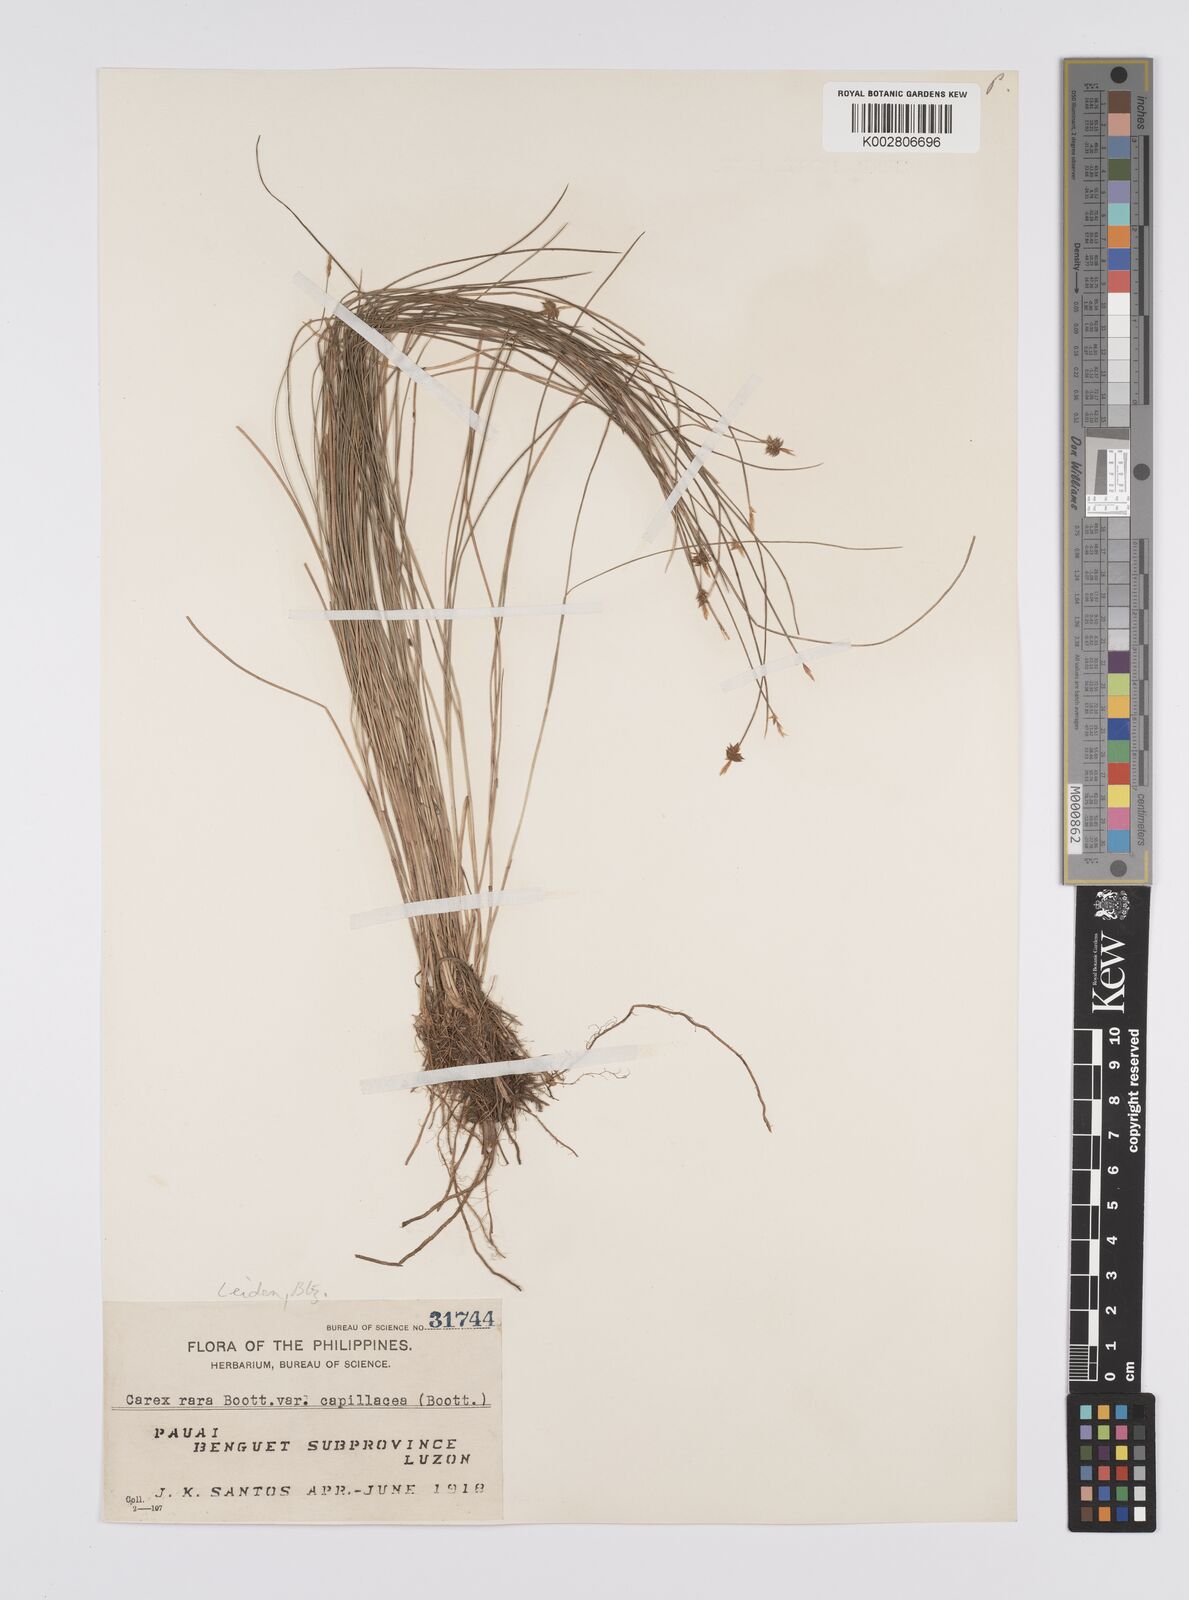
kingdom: Plantae
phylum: Tracheophyta
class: Liliopsida
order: Poales
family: Cyperaceae
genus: Carex
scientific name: Carex capillacea
